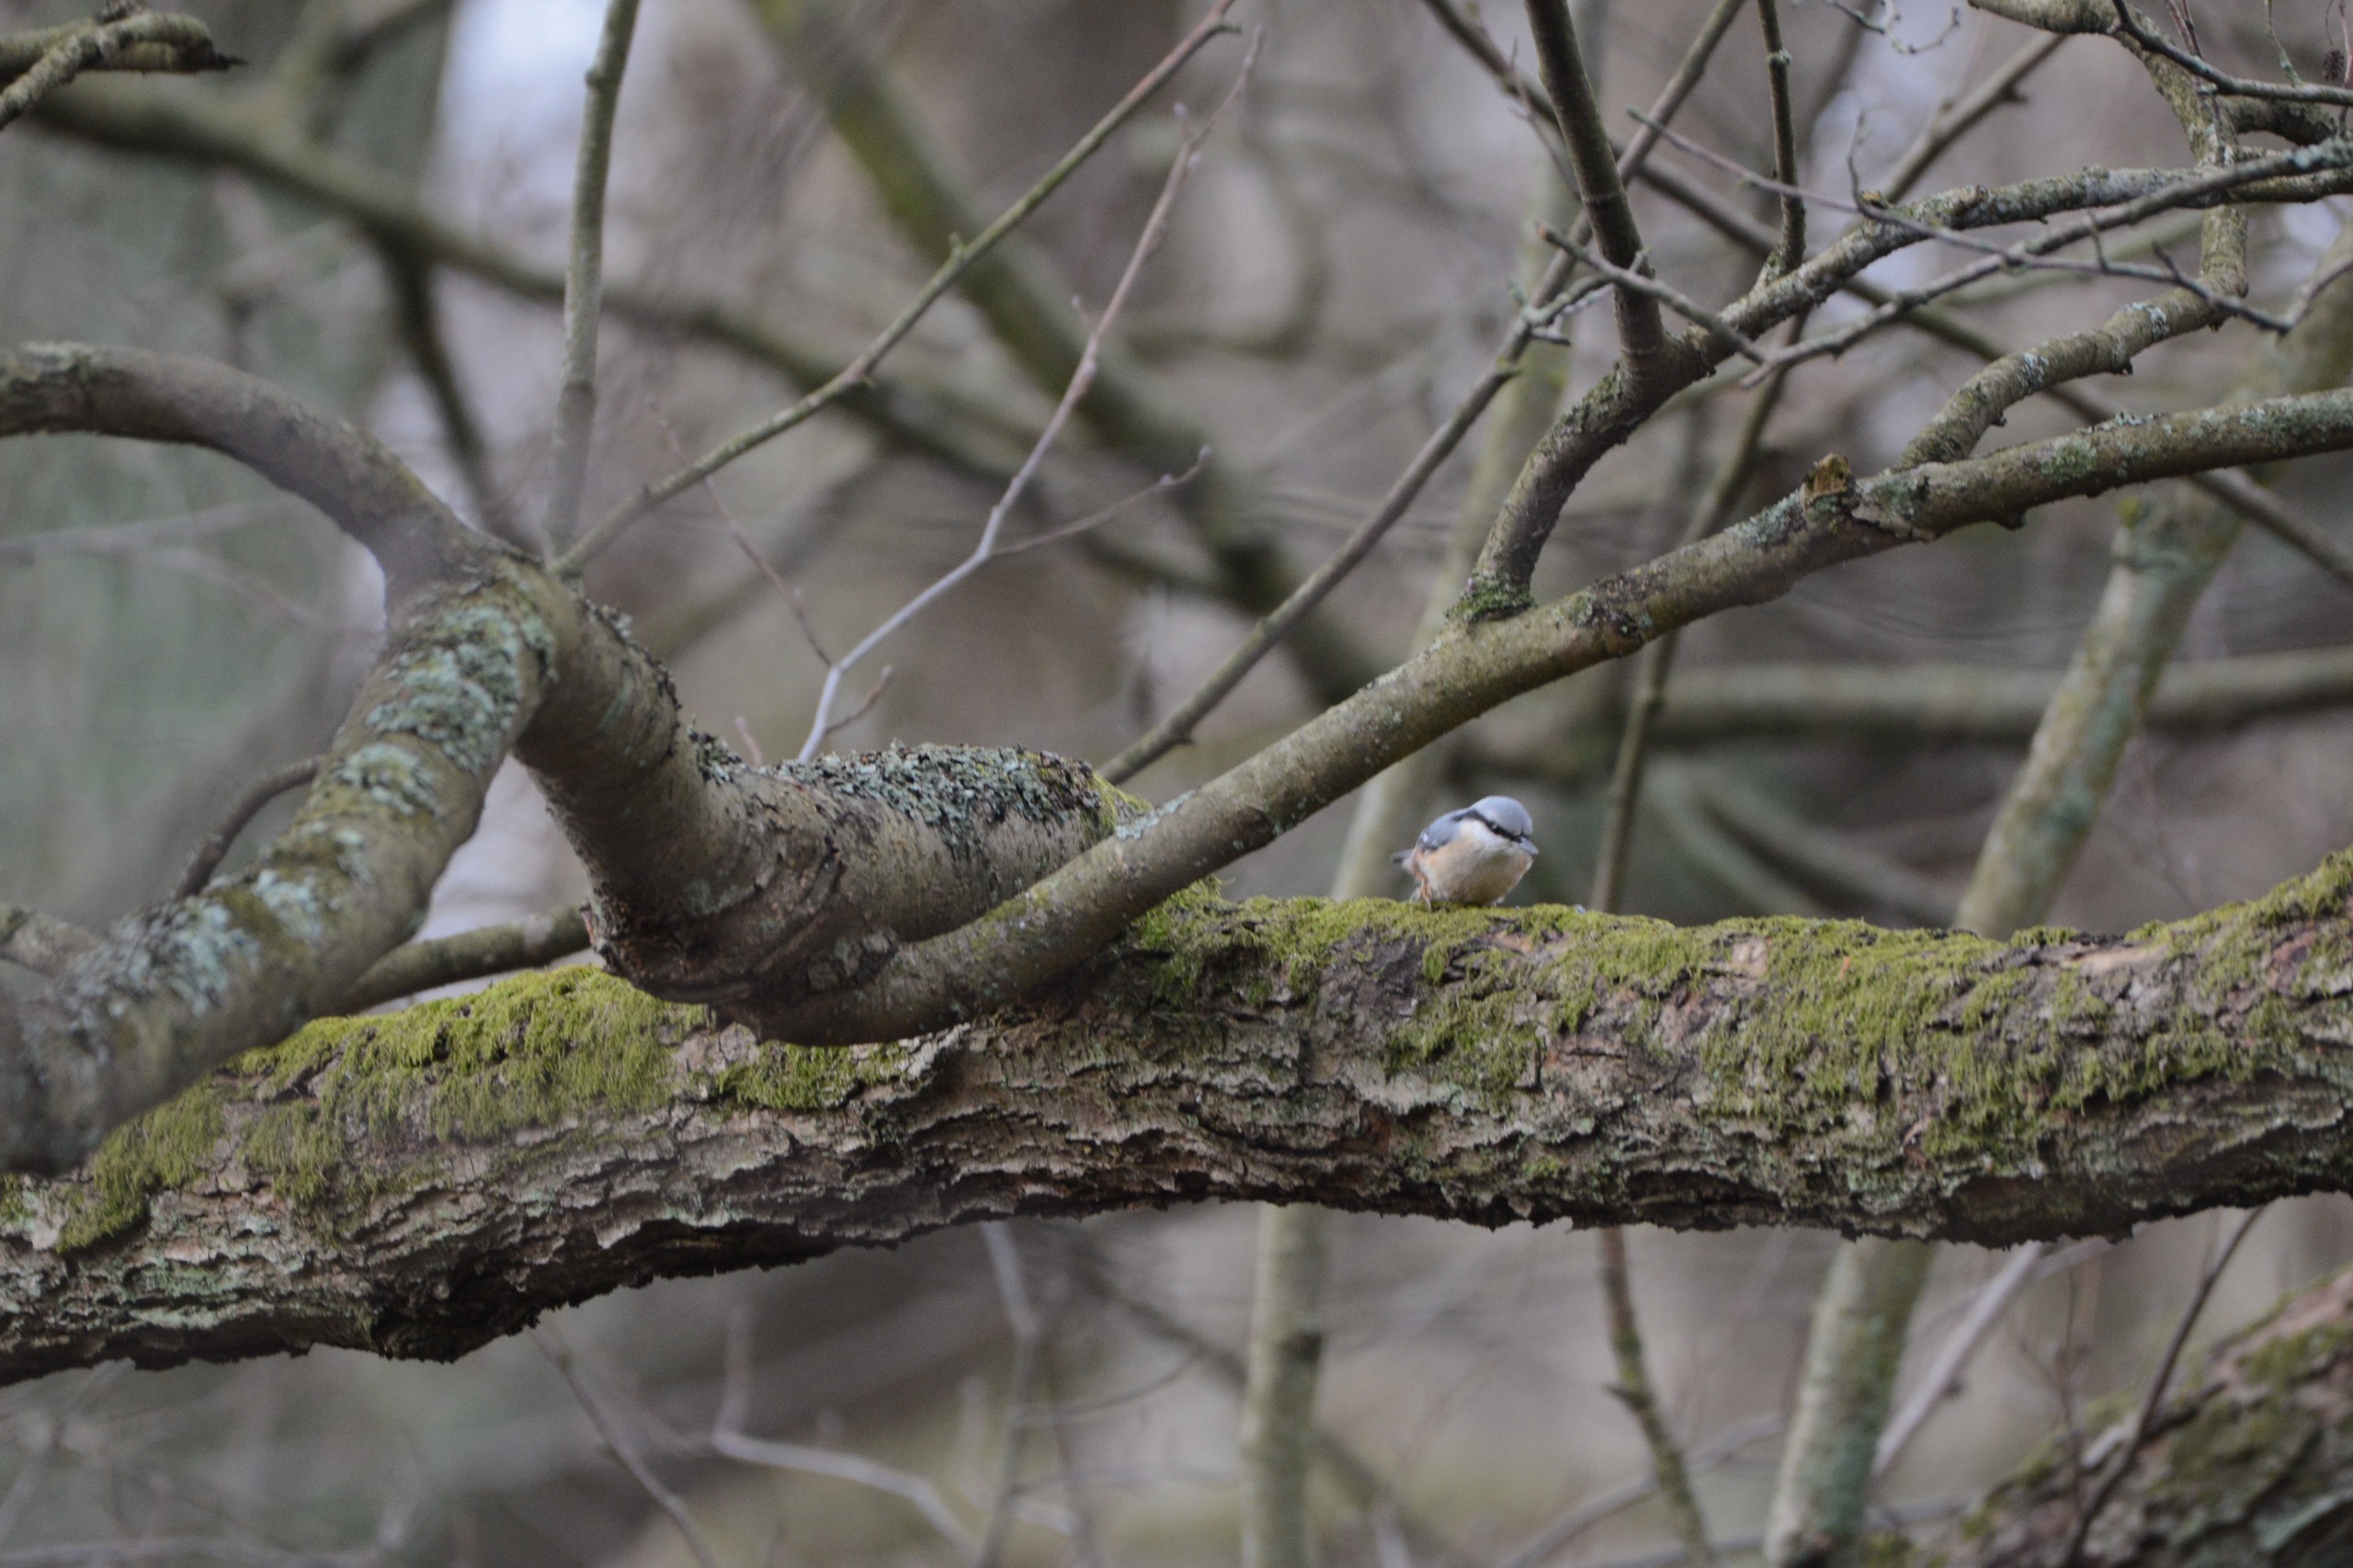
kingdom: Animalia
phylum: Chordata
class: Aves
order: Passeriformes
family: Sittidae
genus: Sitta
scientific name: Sitta europaea
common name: Spætmejse
